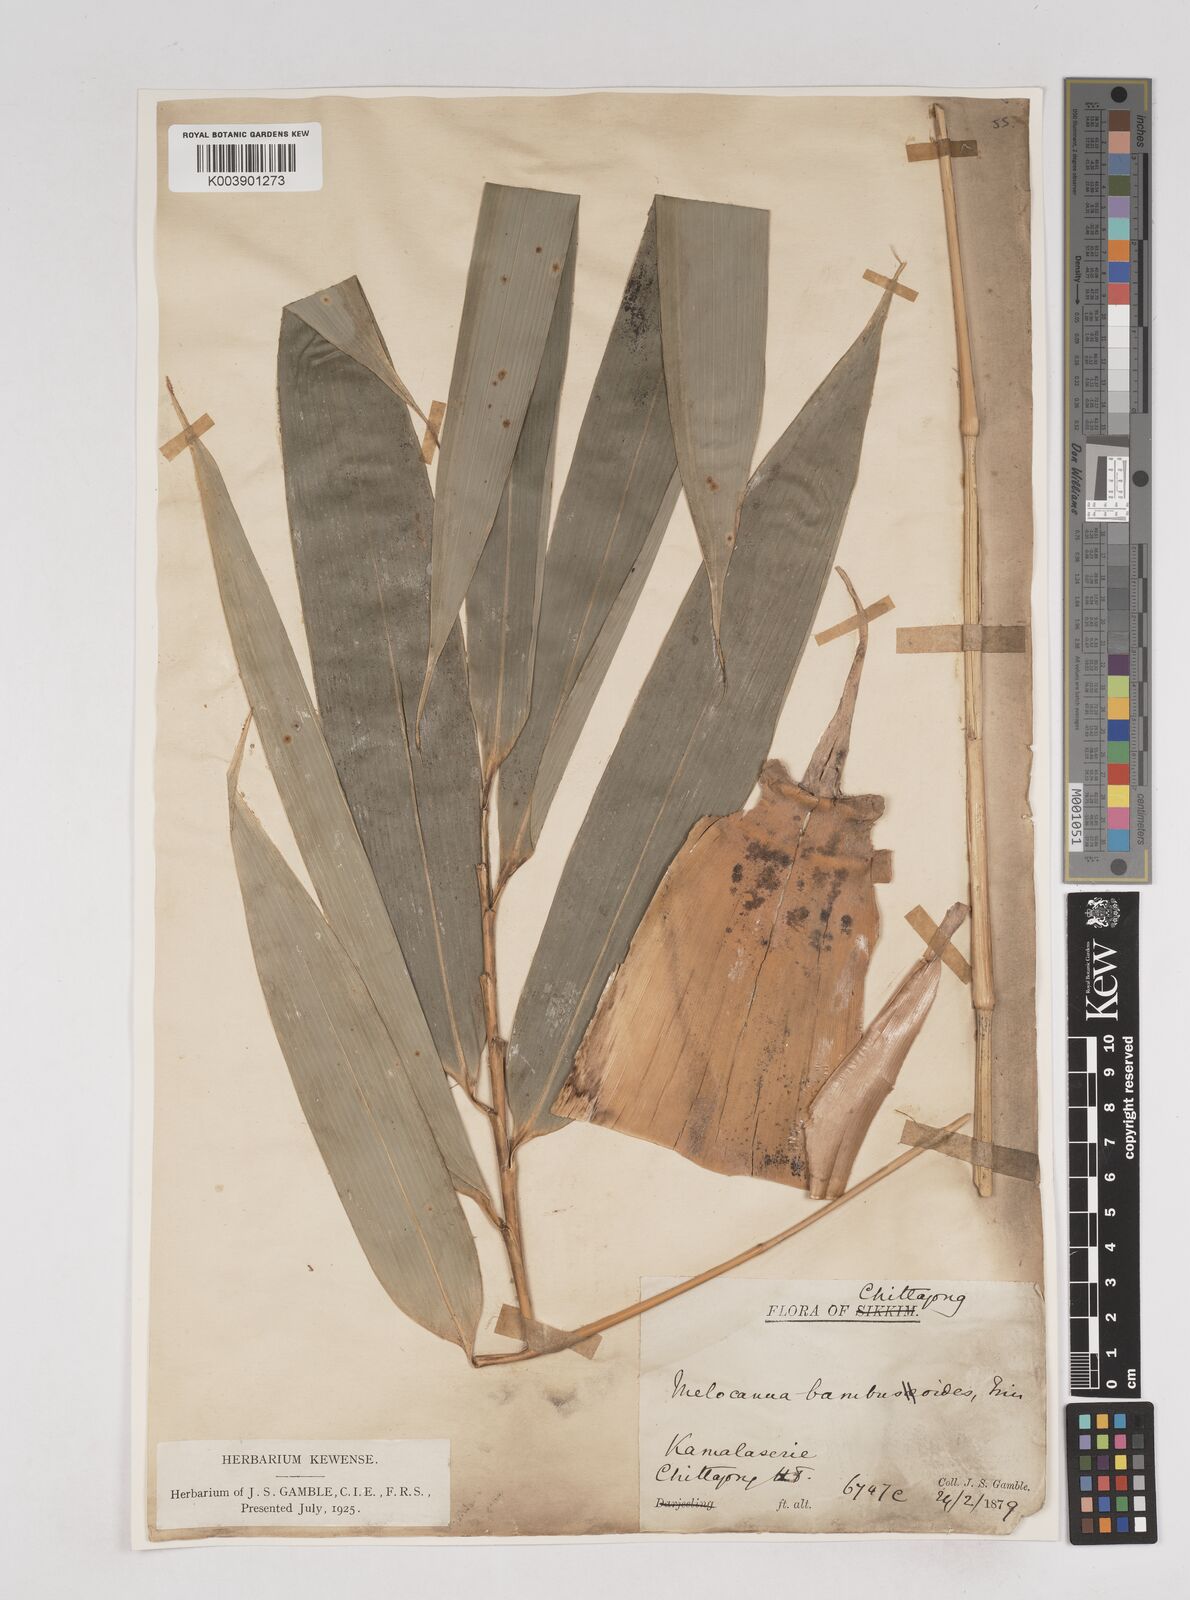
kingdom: Plantae
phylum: Tracheophyta
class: Liliopsida
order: Poales
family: Poaceae
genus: Melocanna
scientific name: Melocanna baccifera
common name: Berry bamboo
